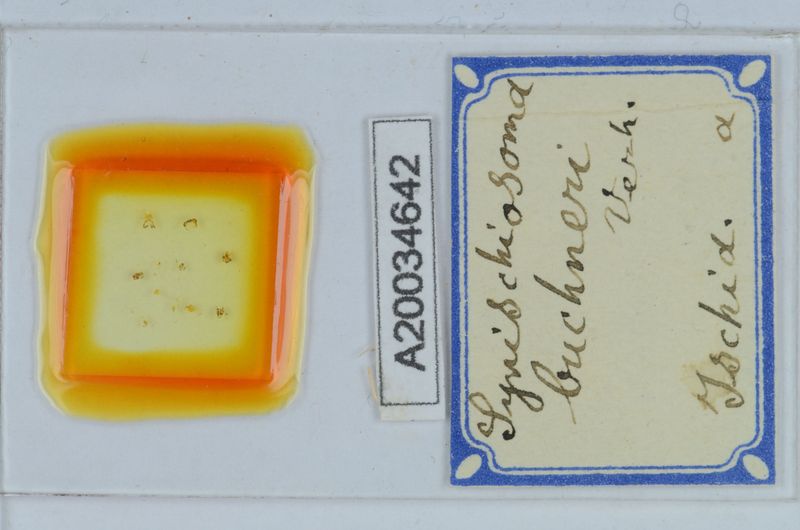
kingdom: Animalia
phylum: Arthropoda
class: Diplopoda
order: Chordeumatida
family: Craspedosomatidae
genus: Synischiosoma
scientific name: Synischiosoma buchneri
